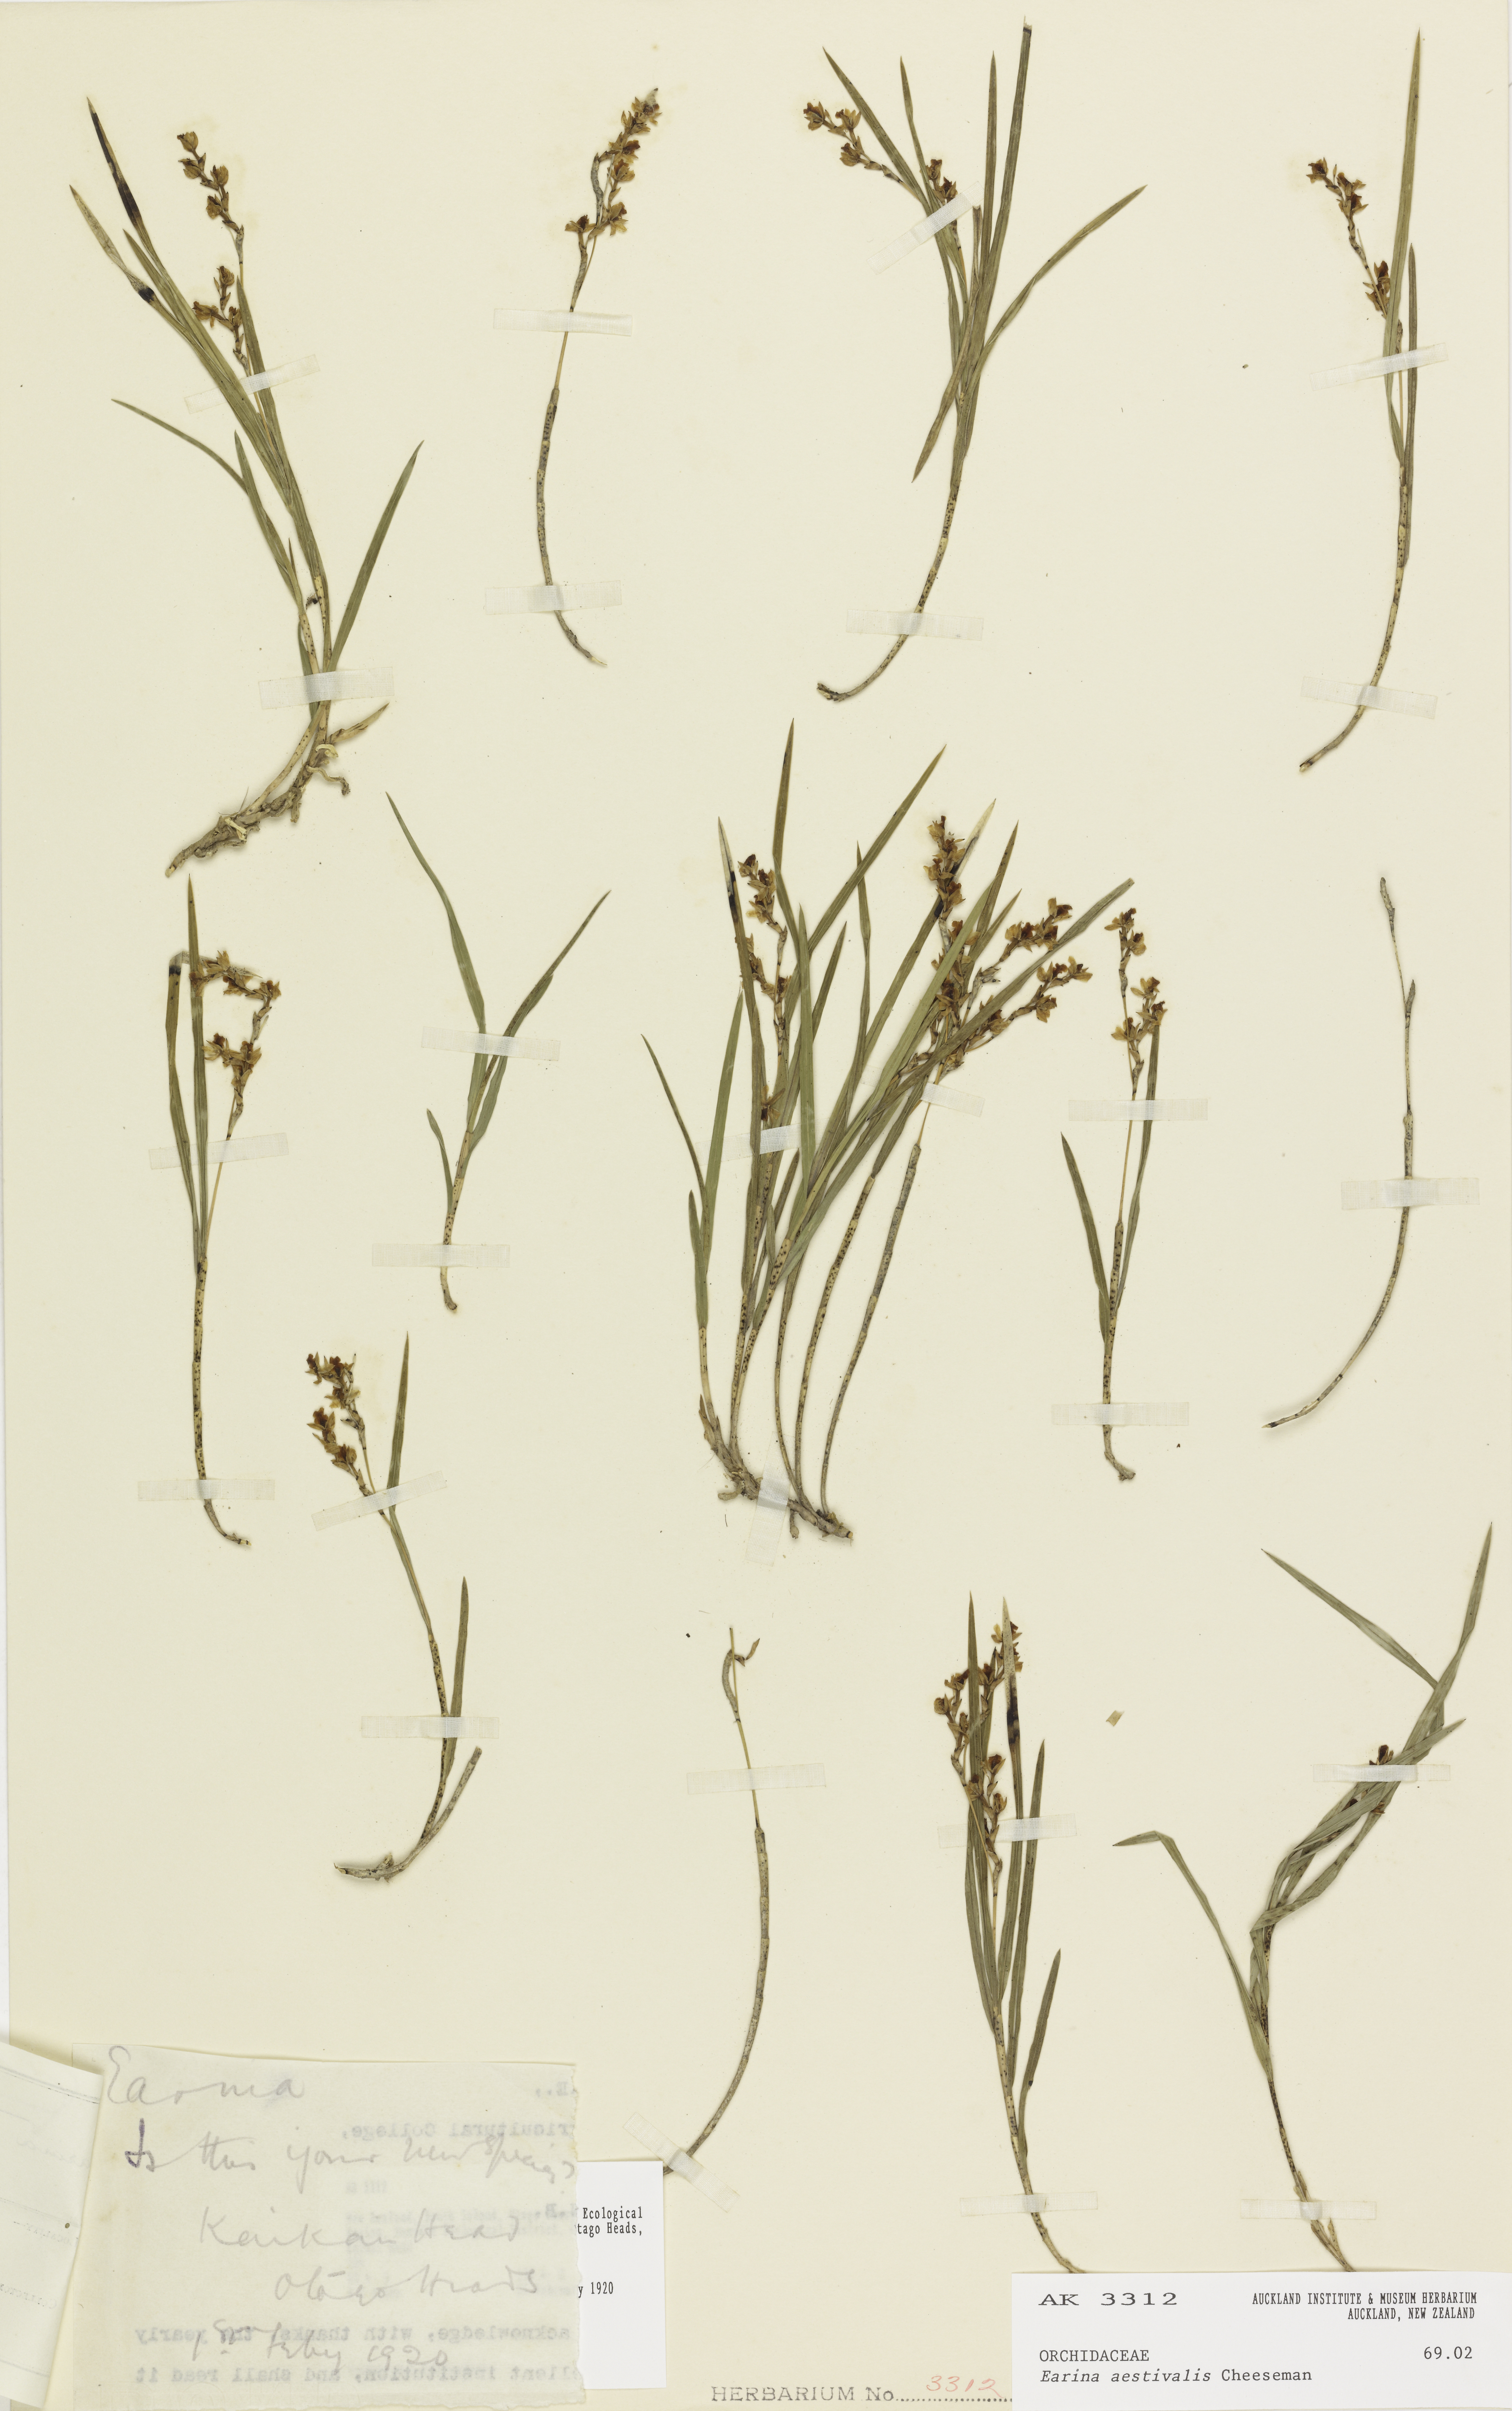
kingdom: Plantae
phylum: Tracheophyta
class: Liliopsida
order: Asparagales
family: Orchidaceae
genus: Earina
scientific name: Earina aestivalis
